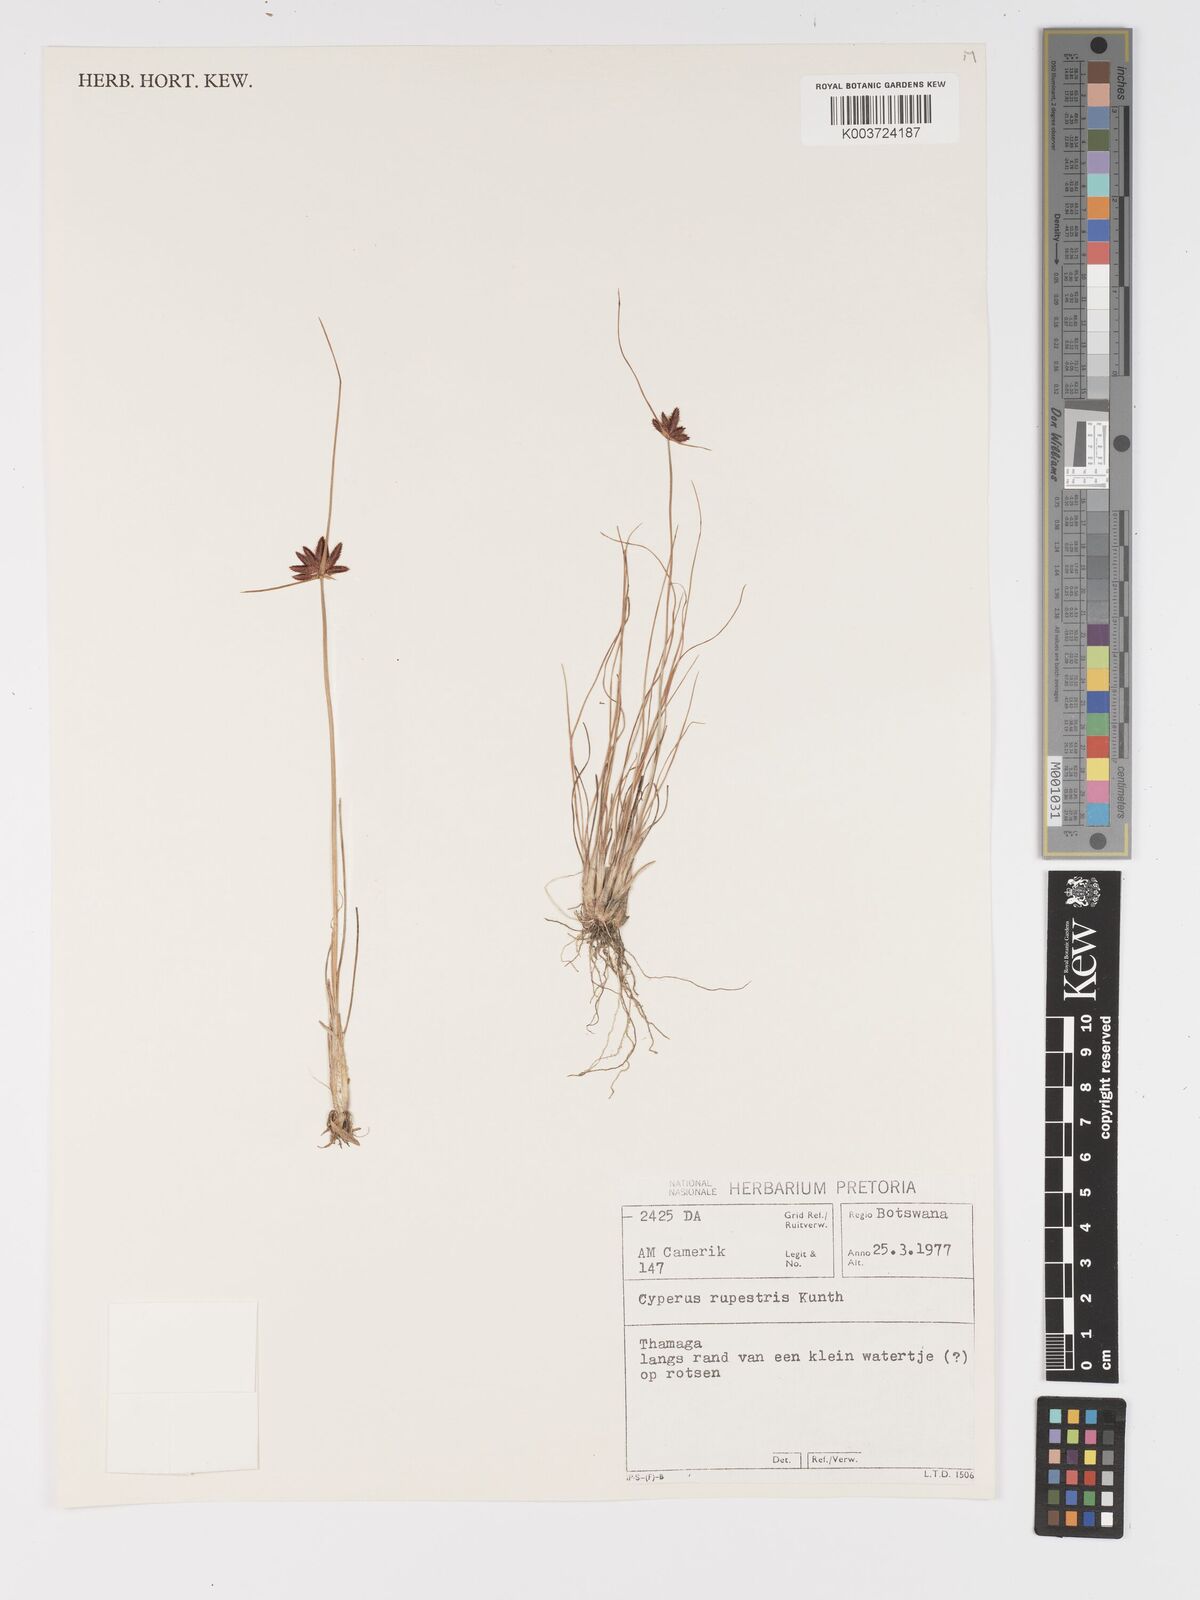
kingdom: Plantae
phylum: Tracheophyta
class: Liliopsida
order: Poales
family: Cyperaceae
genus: Cyperus
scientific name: Cyperus rupestris
